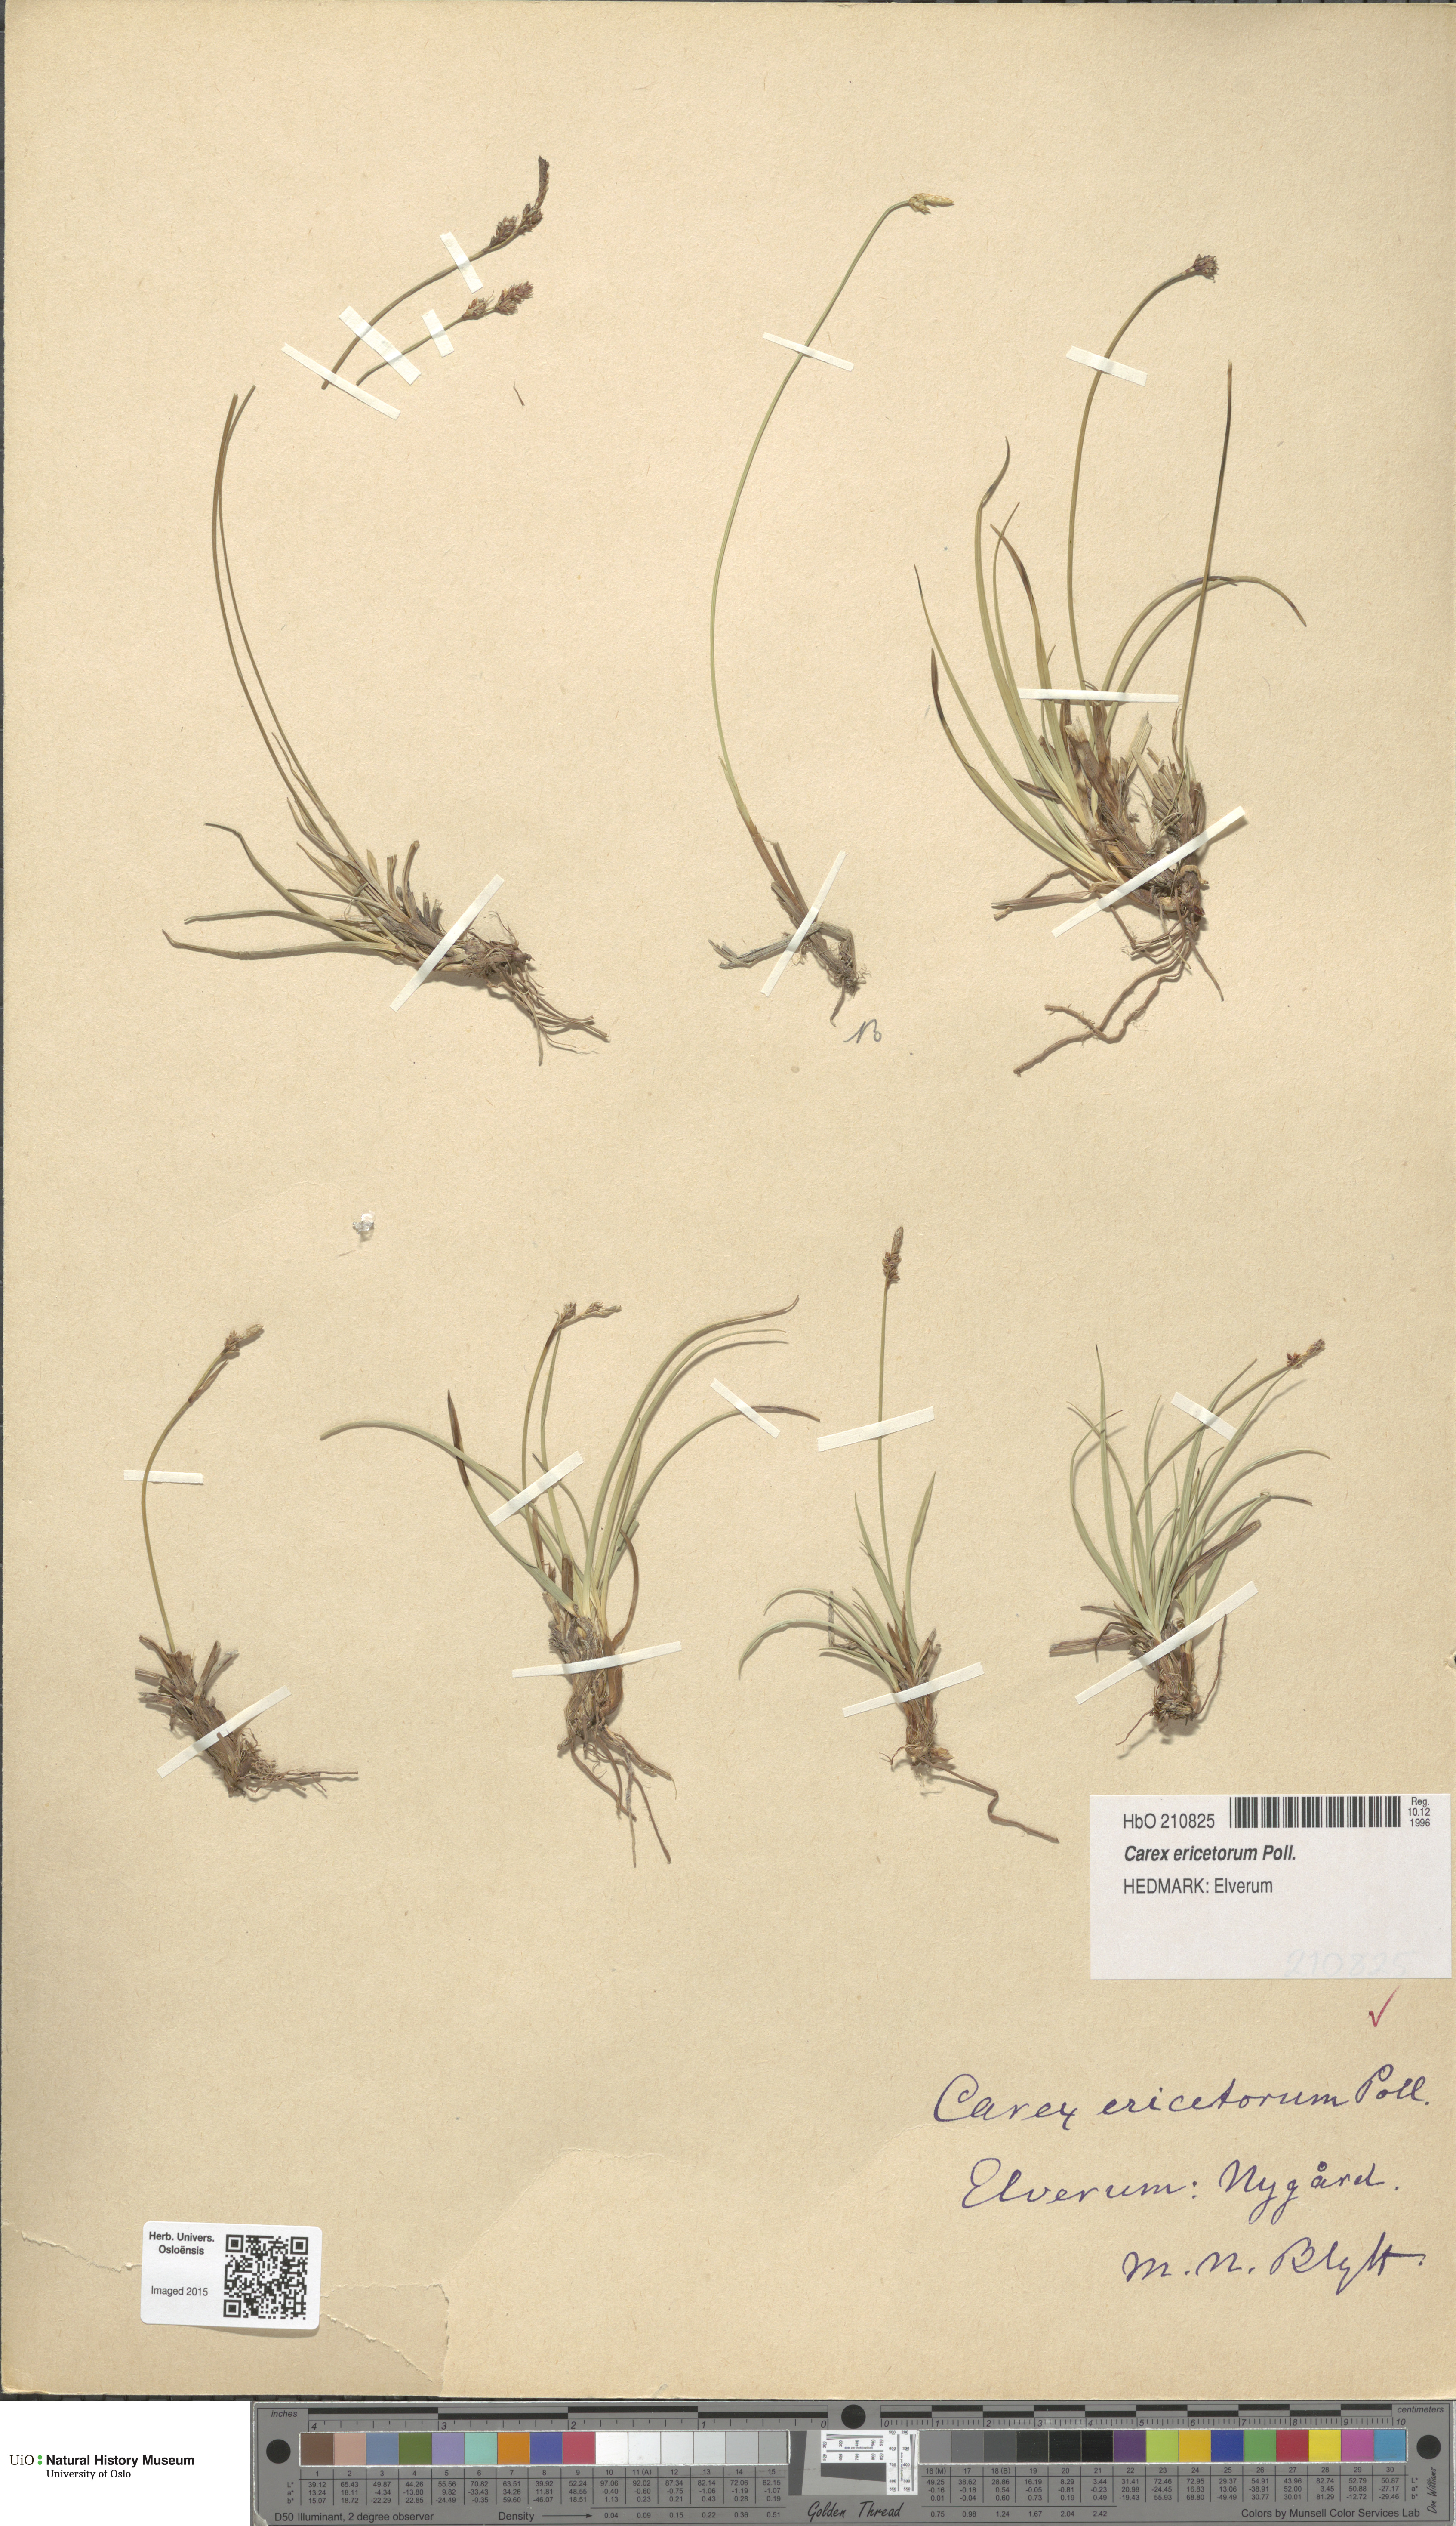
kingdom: Plantae
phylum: Tracheophyta
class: Liliopsida
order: Poales
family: Cyperaceae
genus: Carex
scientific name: Carex ericetorum
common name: Rare spring-sedge
